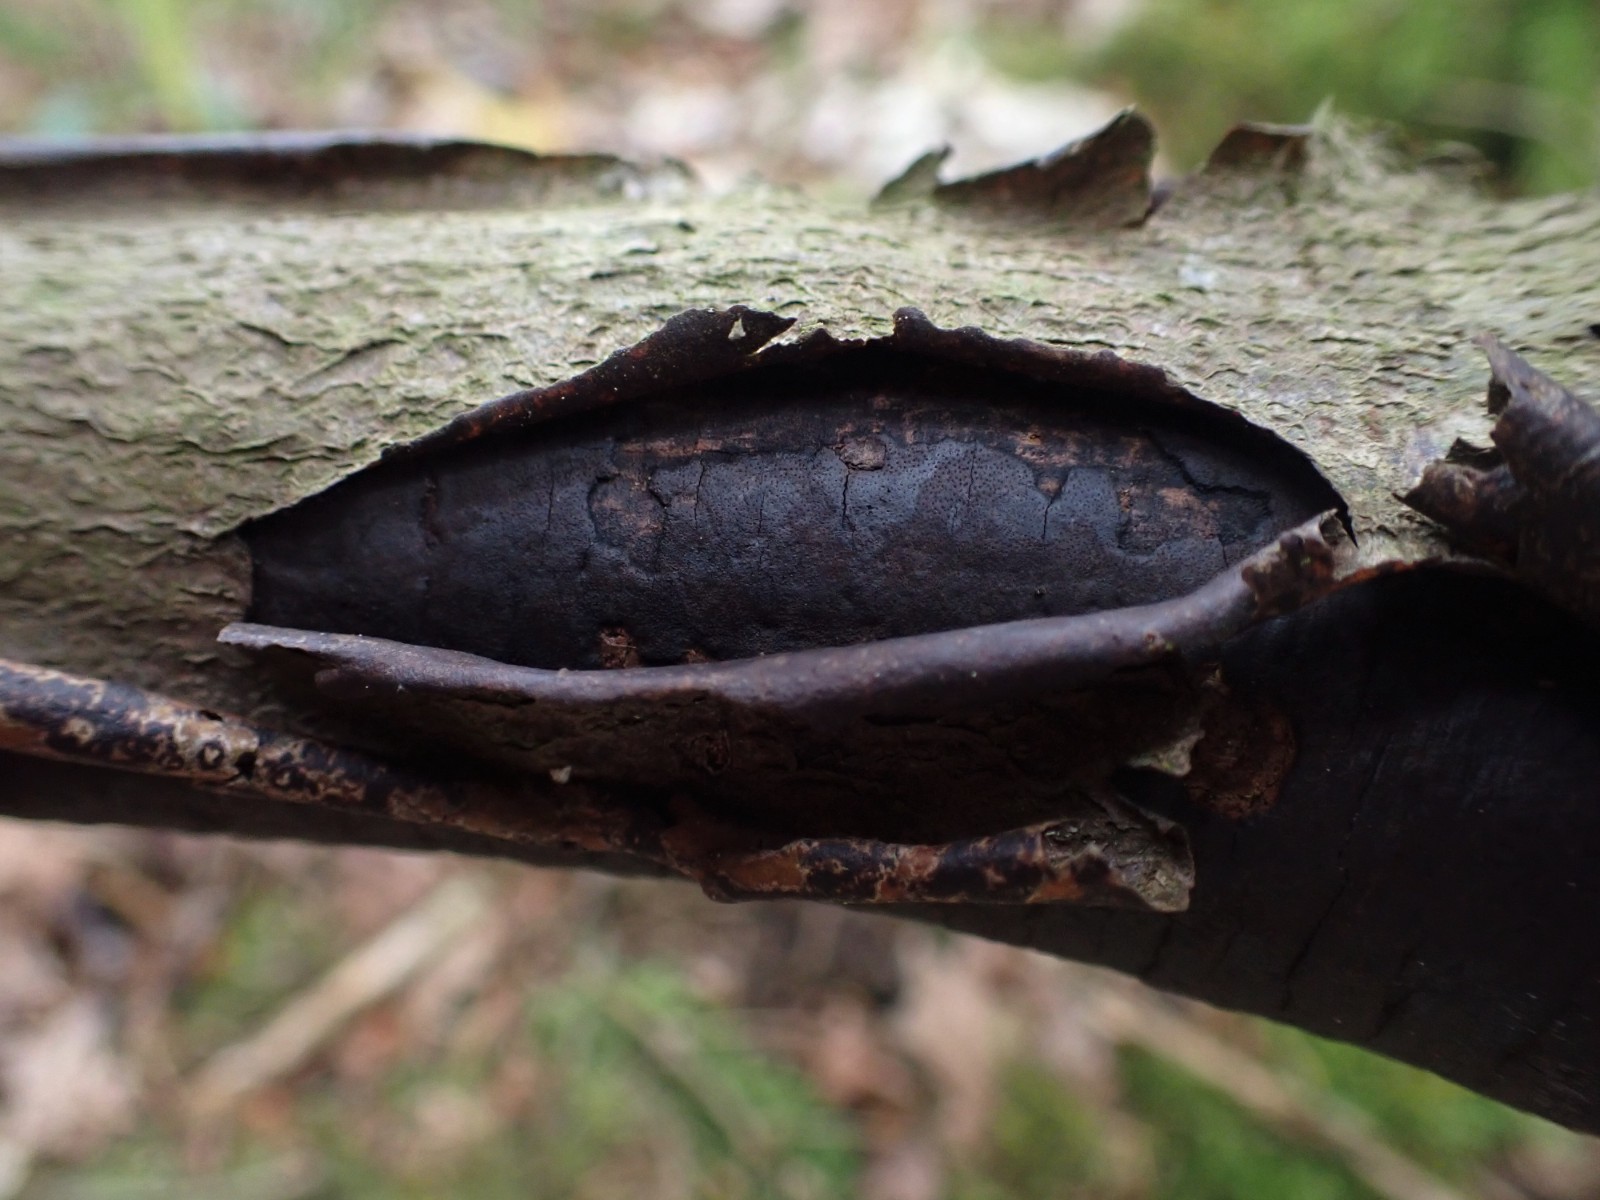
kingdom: Fungi
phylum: Ascomycota
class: Sordariomycetes
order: Xylariales
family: Diatrypaceae
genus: Diatrype
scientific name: Diatrype decorticata
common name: barksprænger-kulskorpe
